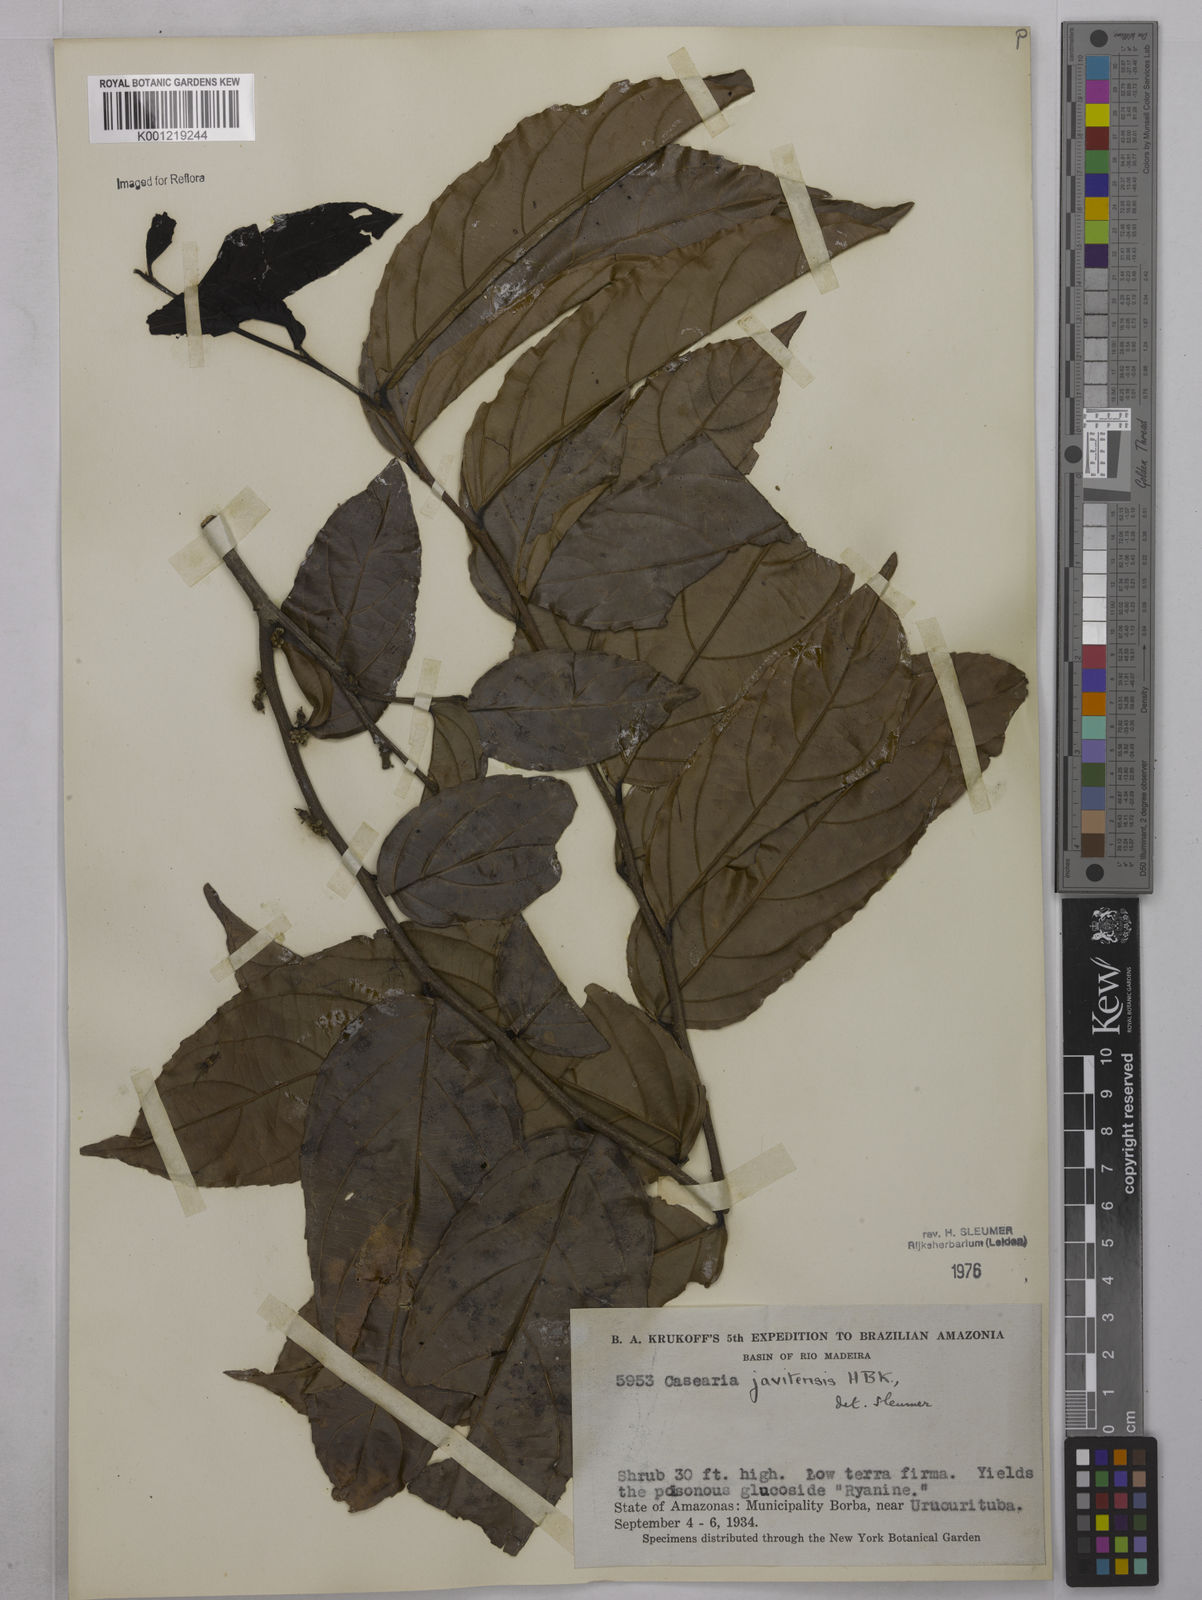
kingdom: Plantae
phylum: Tracheophyta
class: Magnoliopsida
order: Malpighiales
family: Salicaceae
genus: Piparea
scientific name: Piparea multiflora
